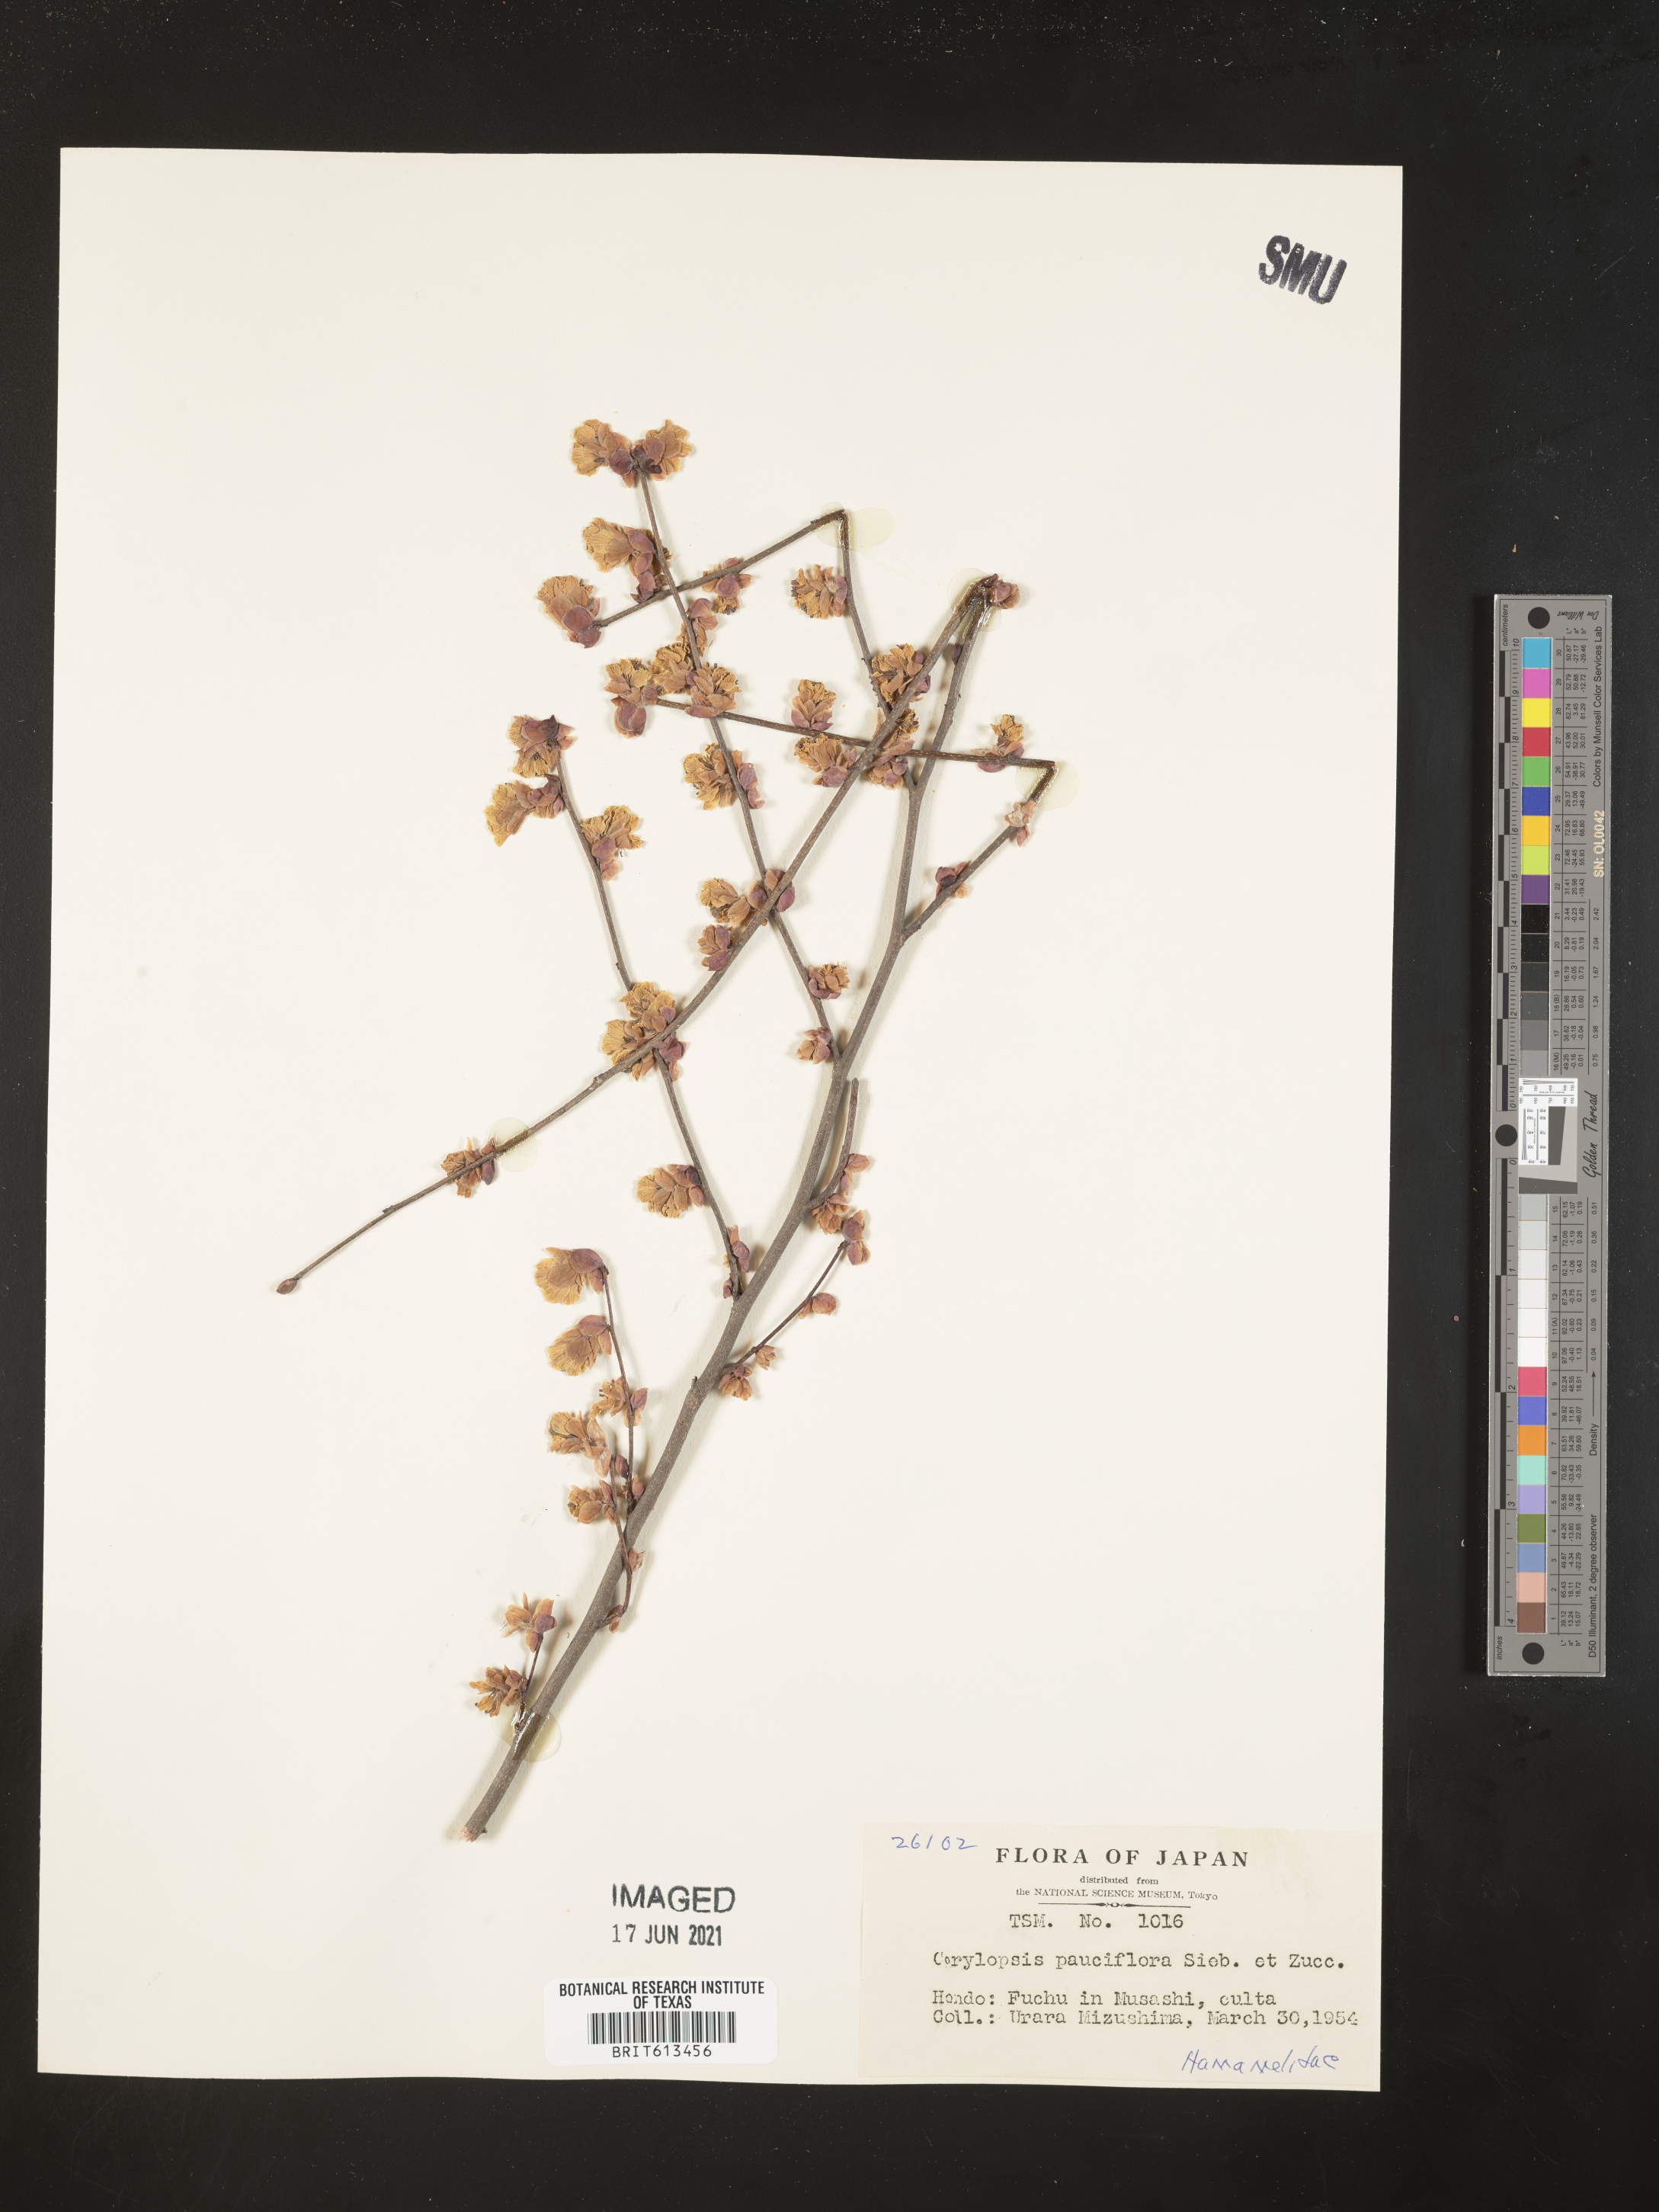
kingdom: Plantae
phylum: Tracheophyta
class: Magnoliopsida
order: Ranunculales
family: Papaveraceae
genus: Corydalis
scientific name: Corydalis pauciflora
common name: Blue corydalis
